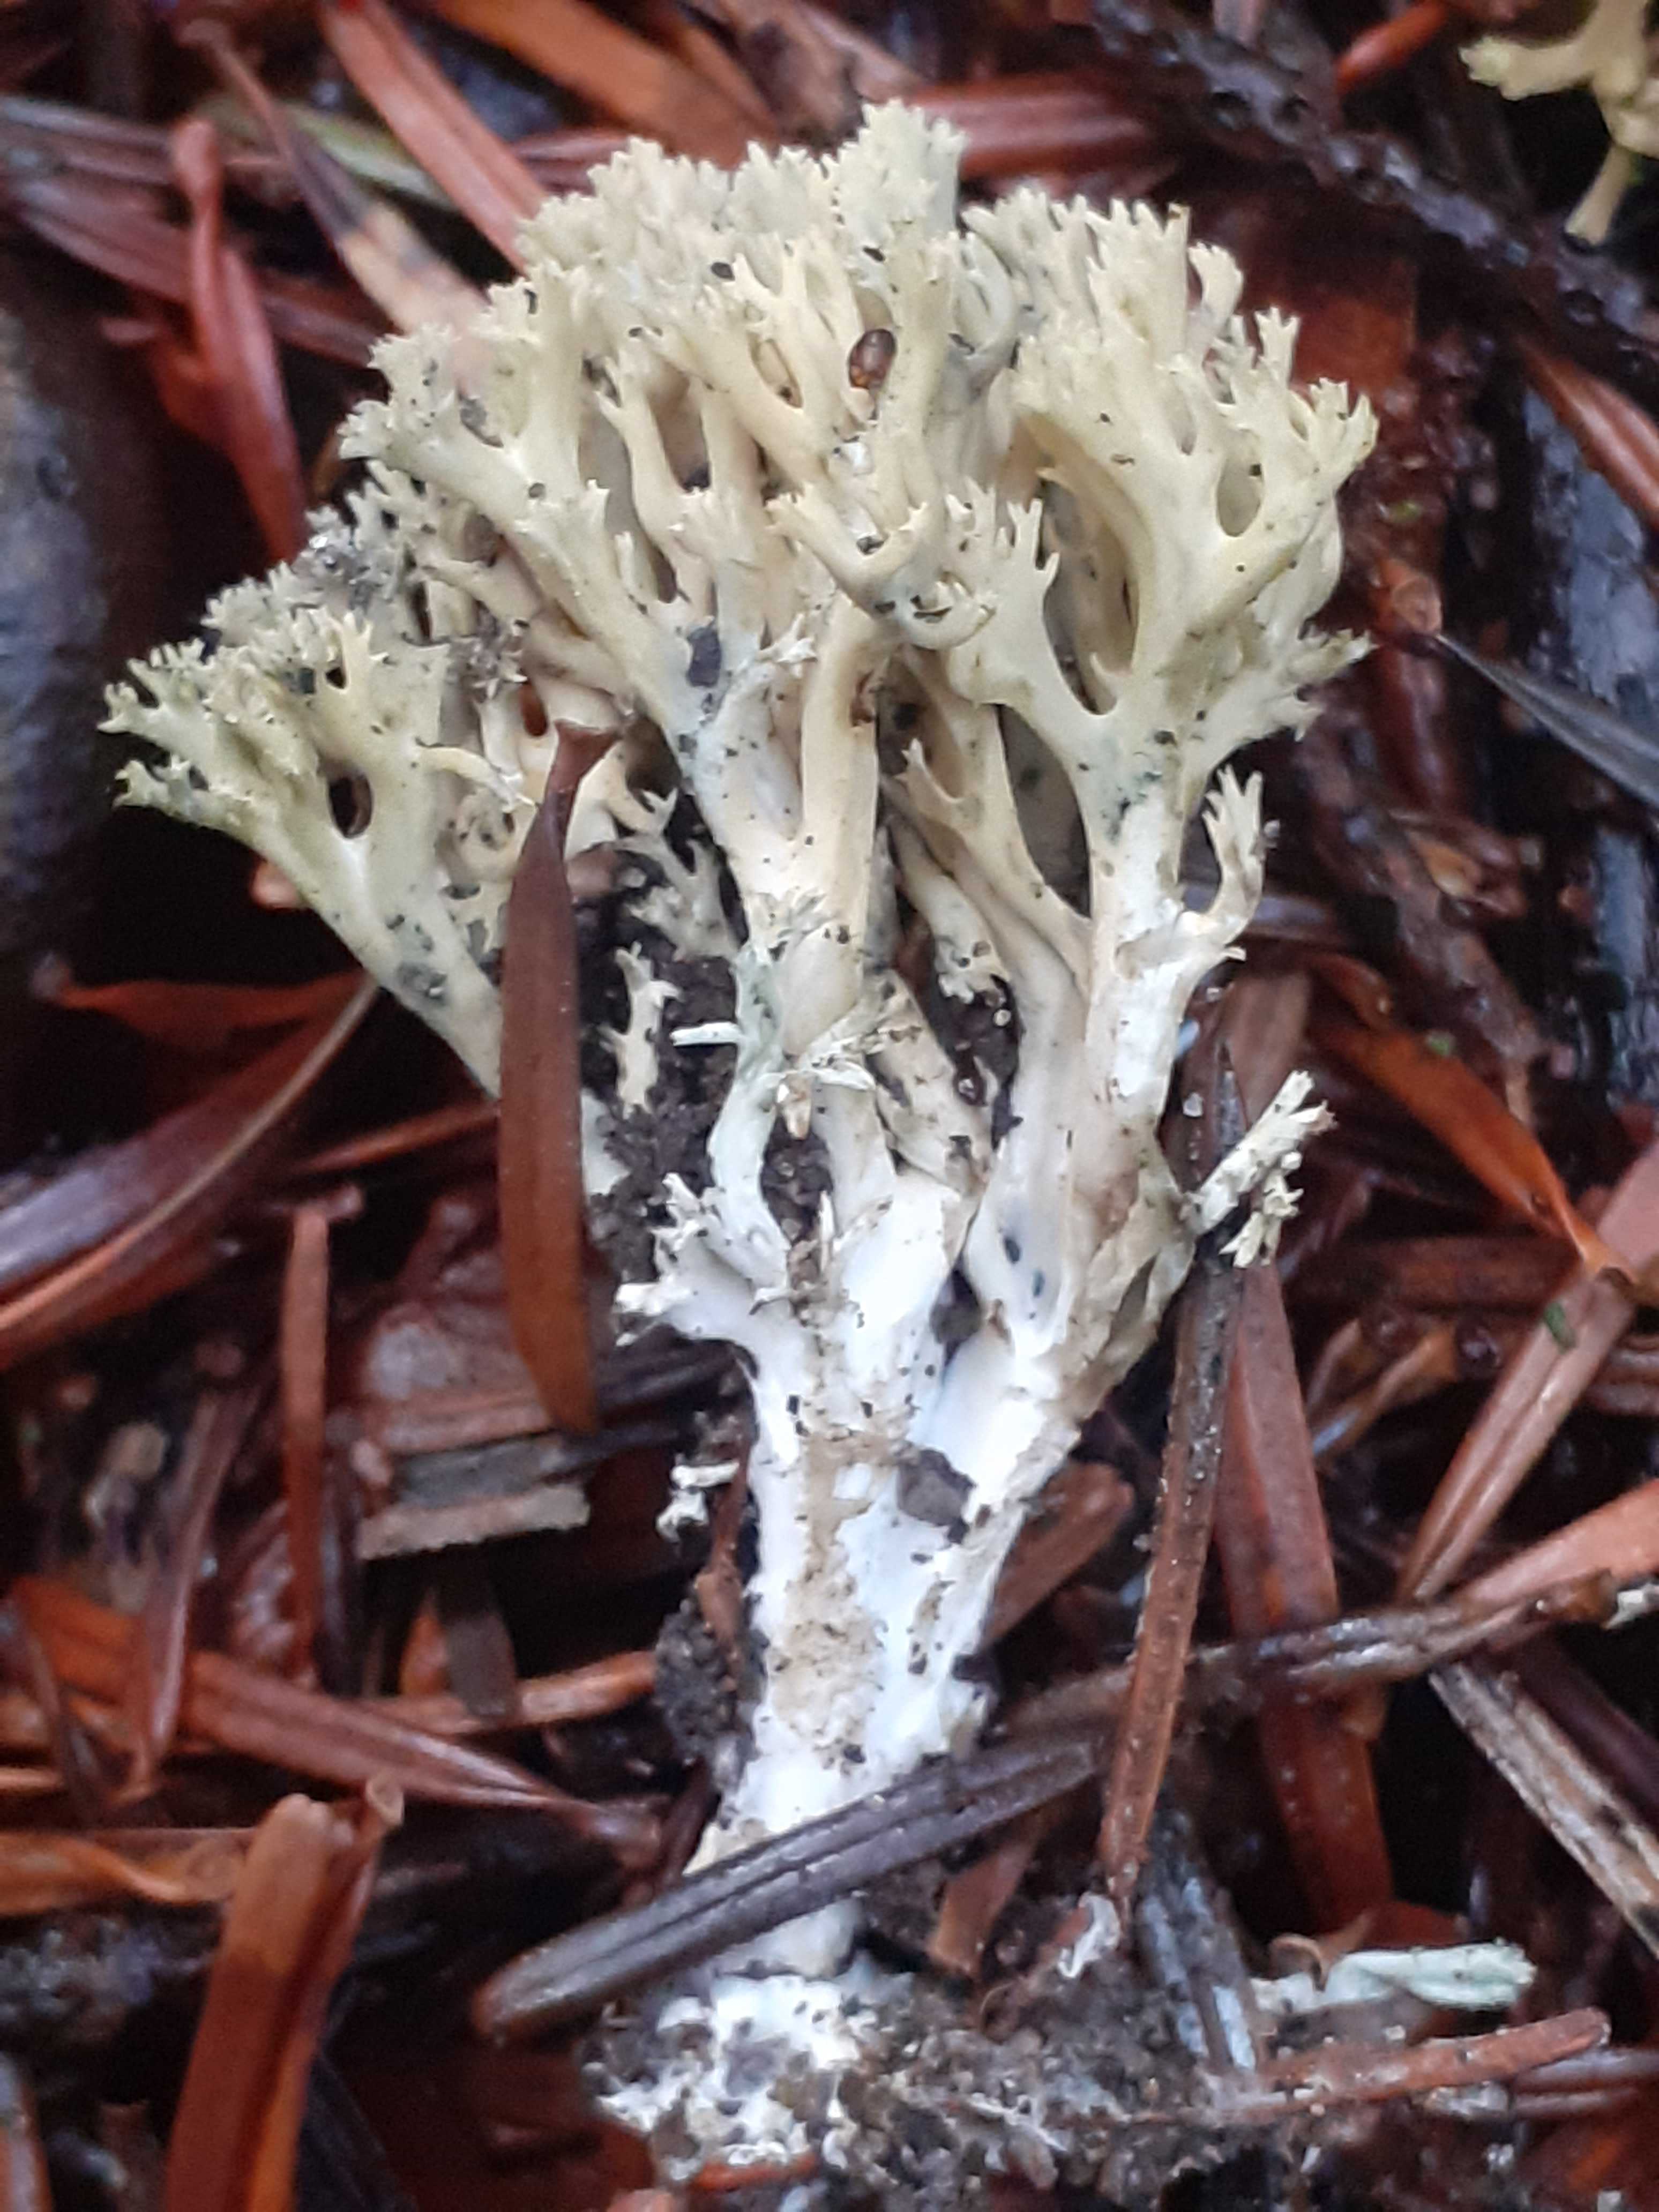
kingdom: Fungi
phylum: Basidiomycota
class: Agaricomycetes
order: Gomphales
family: Gomphaceae
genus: Phaeoclavulina
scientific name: Phaeoclavulina abietina
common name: gulgrøn koralsvamp
